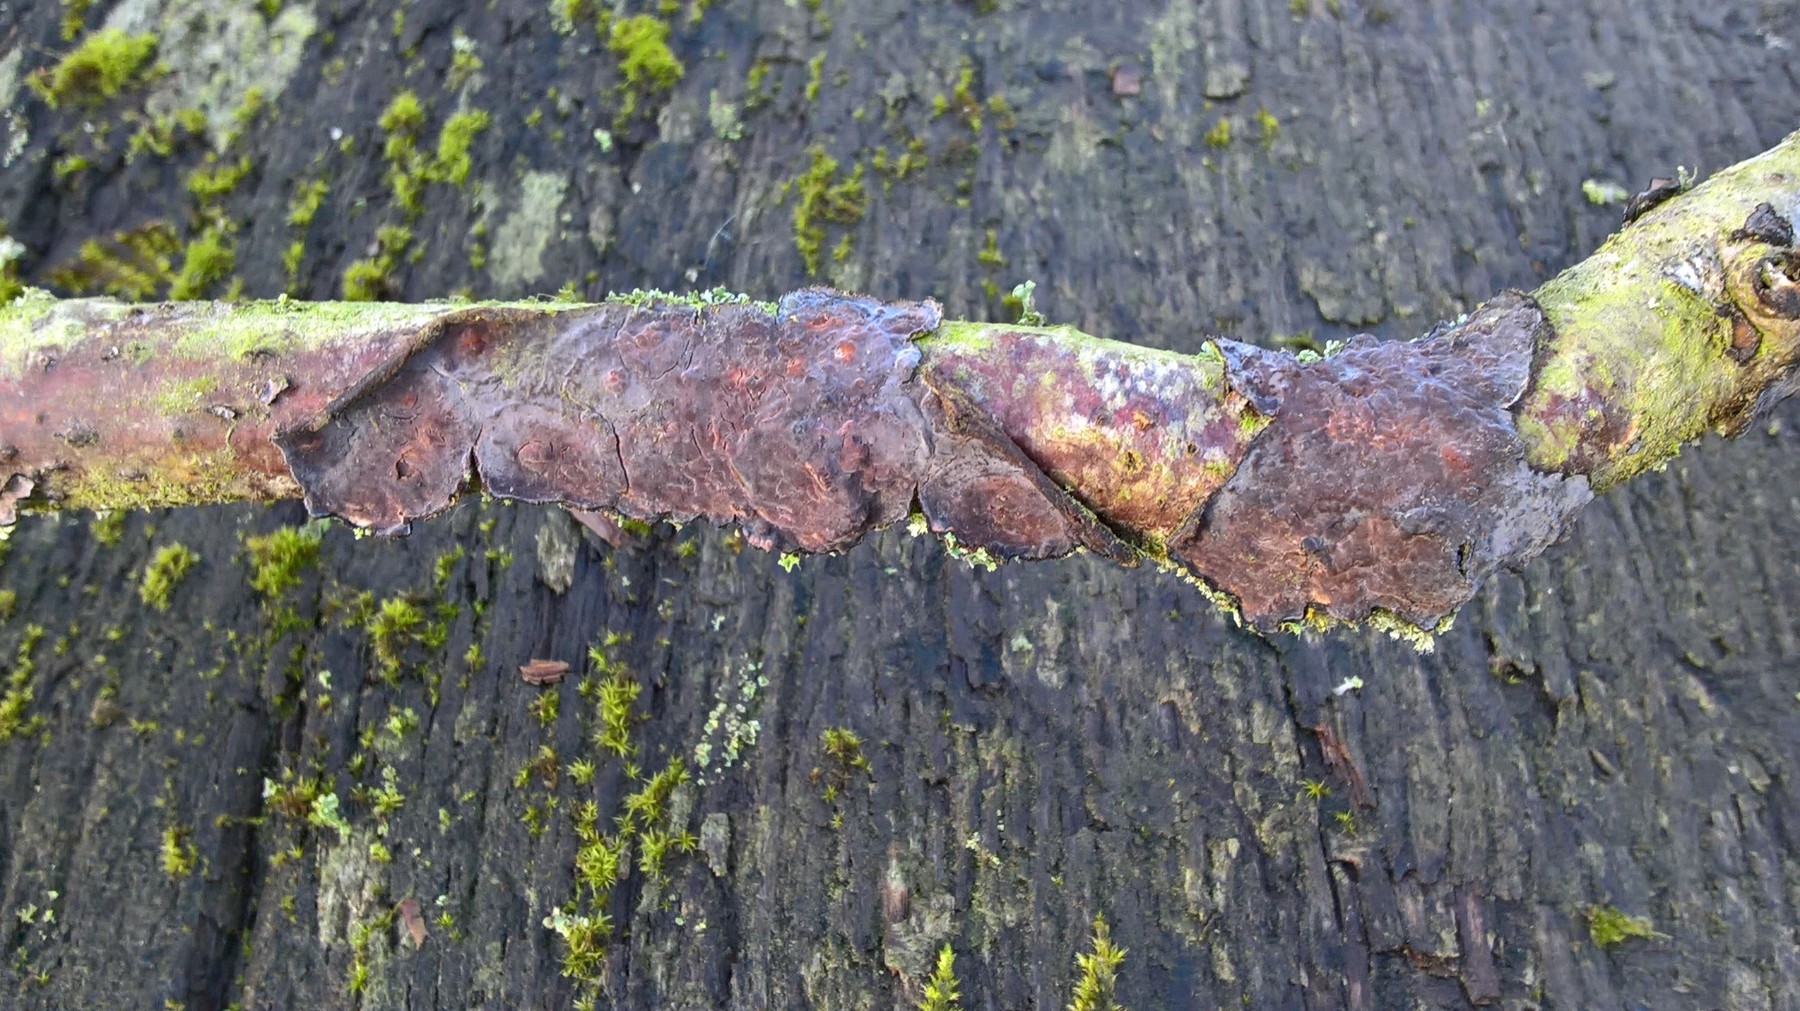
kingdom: Fungi
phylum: Basidiomycota
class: Agaricomycetes
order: Russulales
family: Peniophoraceae
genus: Peniophora
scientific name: Peniophora quercina
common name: ege-voksskind
